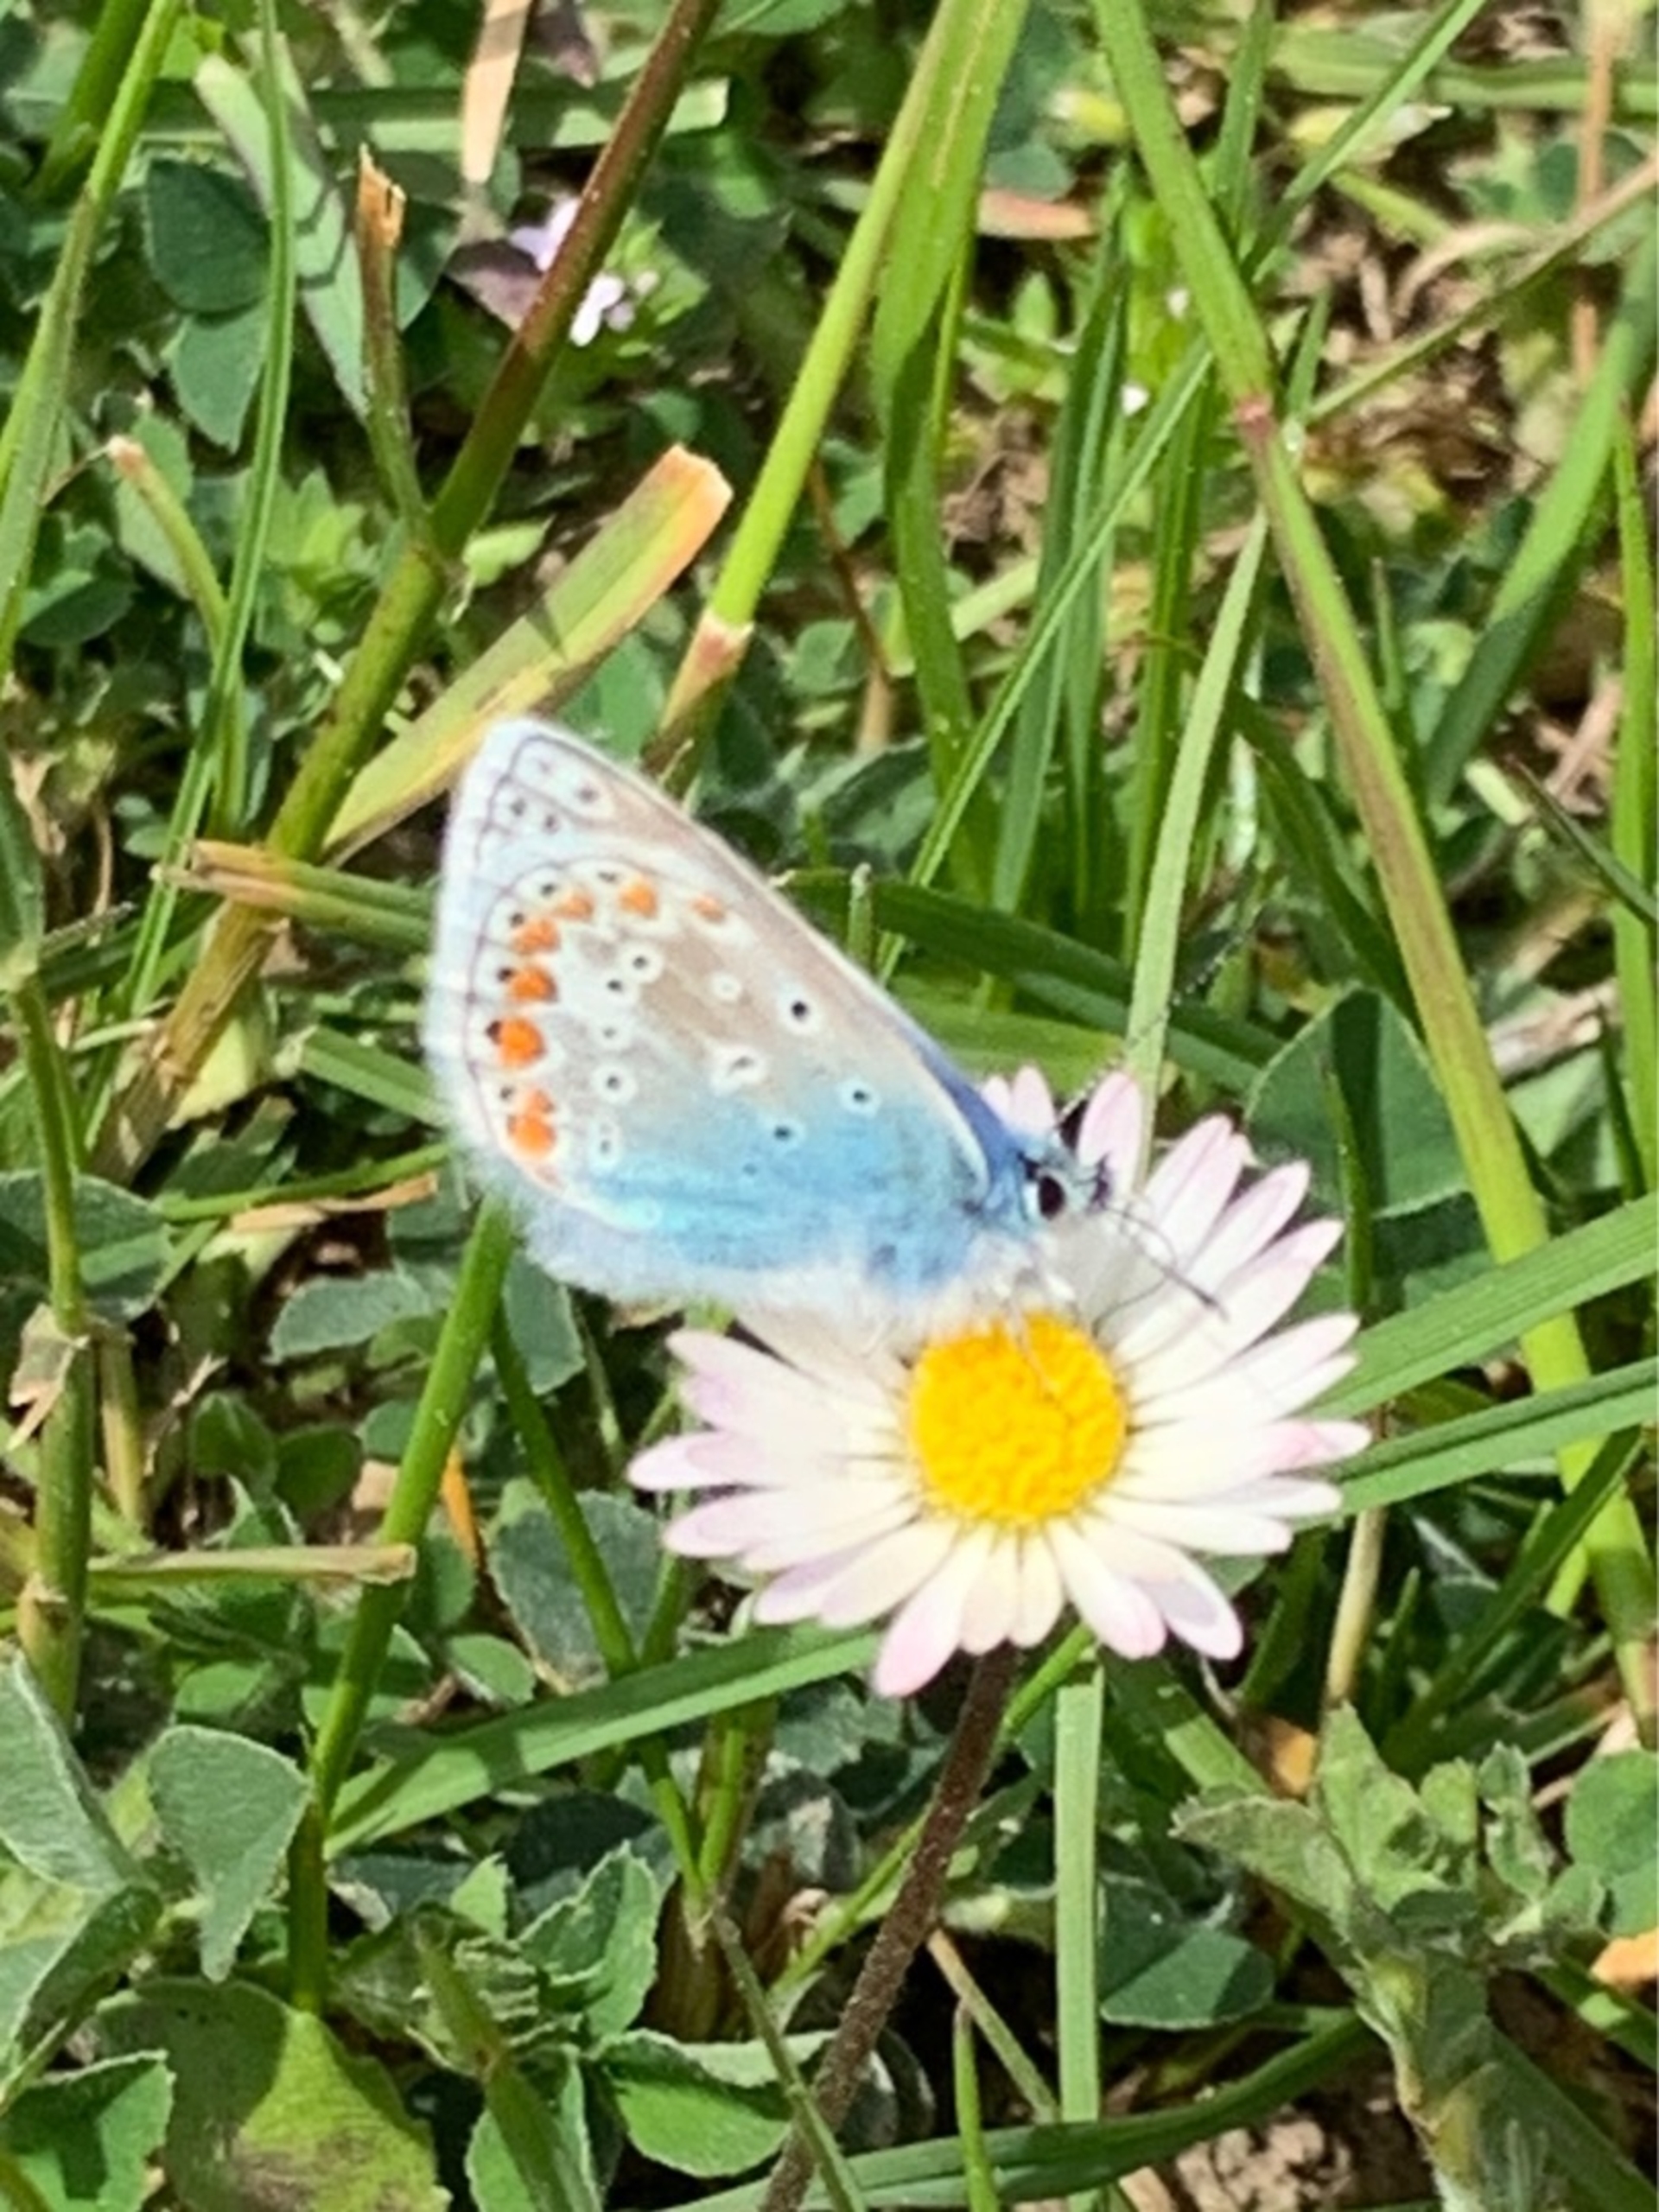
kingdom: Animalia
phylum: Arthropoda
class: Insecta
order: Lepidoptera
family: Lycaenidae
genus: Polyommatus
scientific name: Polyommatus icarus
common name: Almindelig blåfugl
